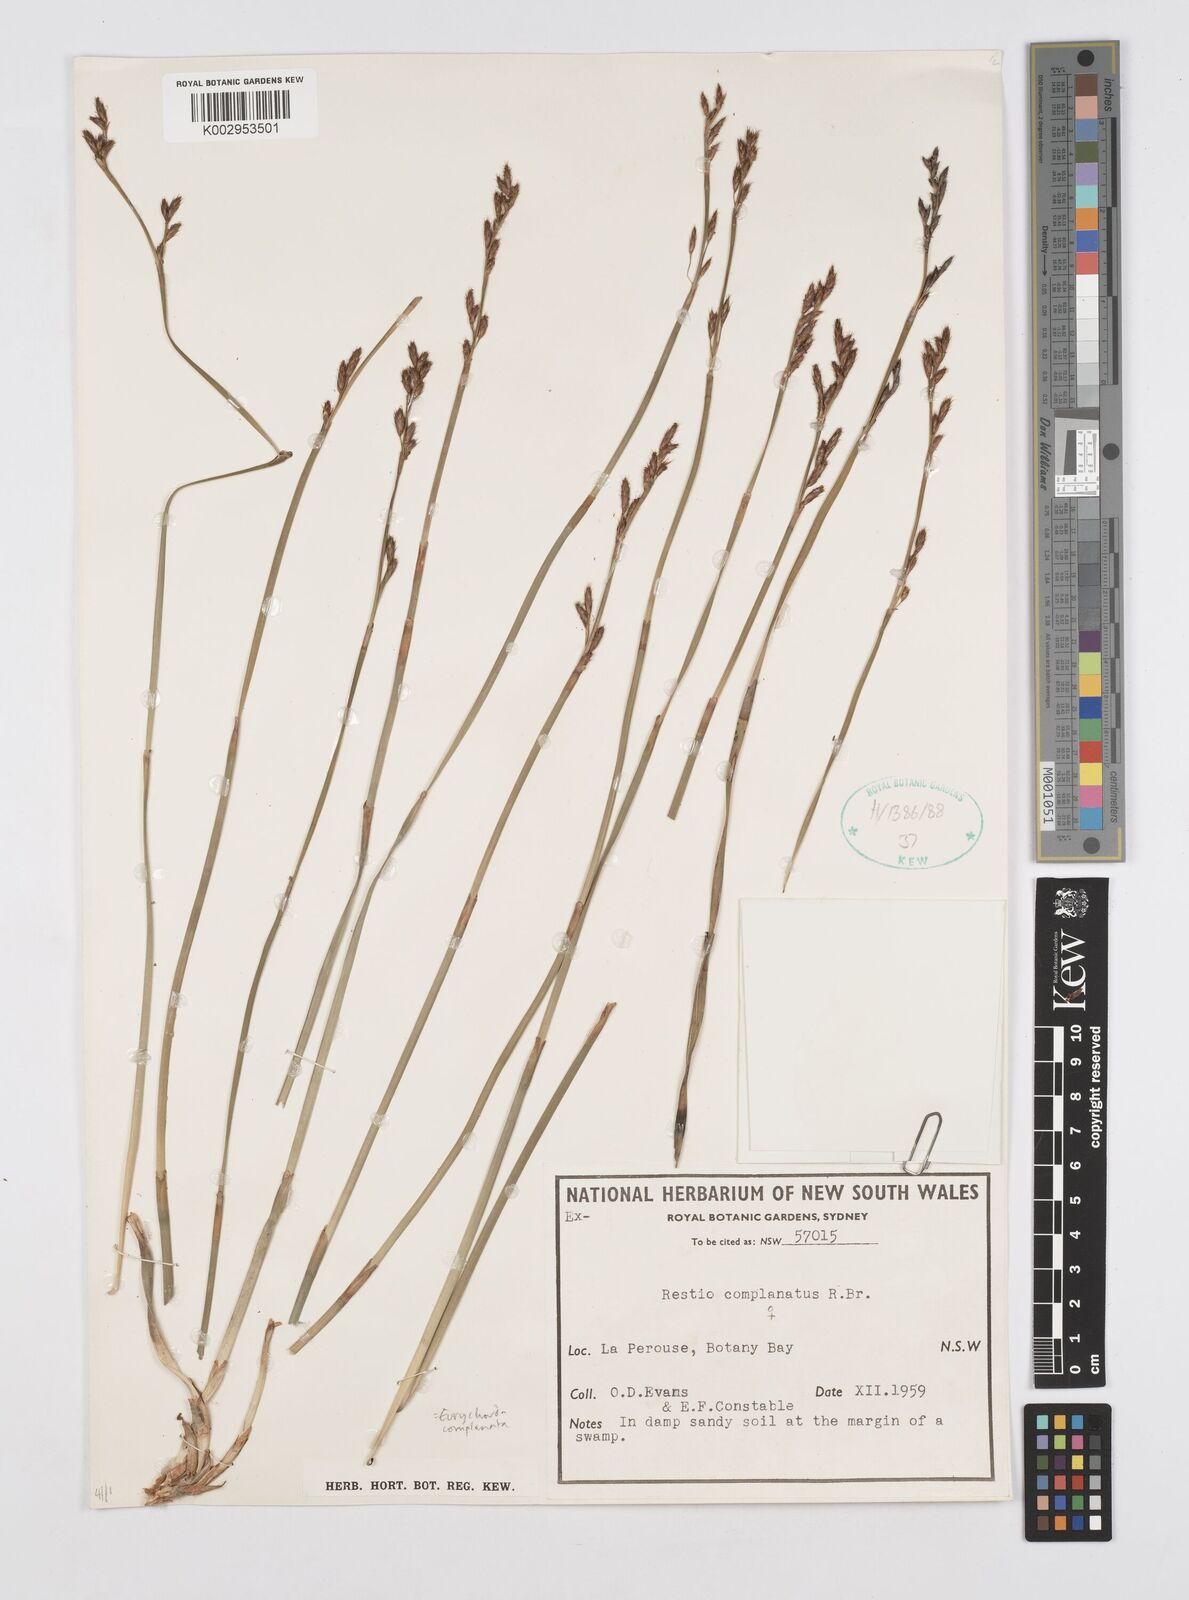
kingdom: Plantae
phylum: Tracheophyta
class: Liliopsida
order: Poales
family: Restionaceae
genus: Eurychorda
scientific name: Eurychorda complanata
